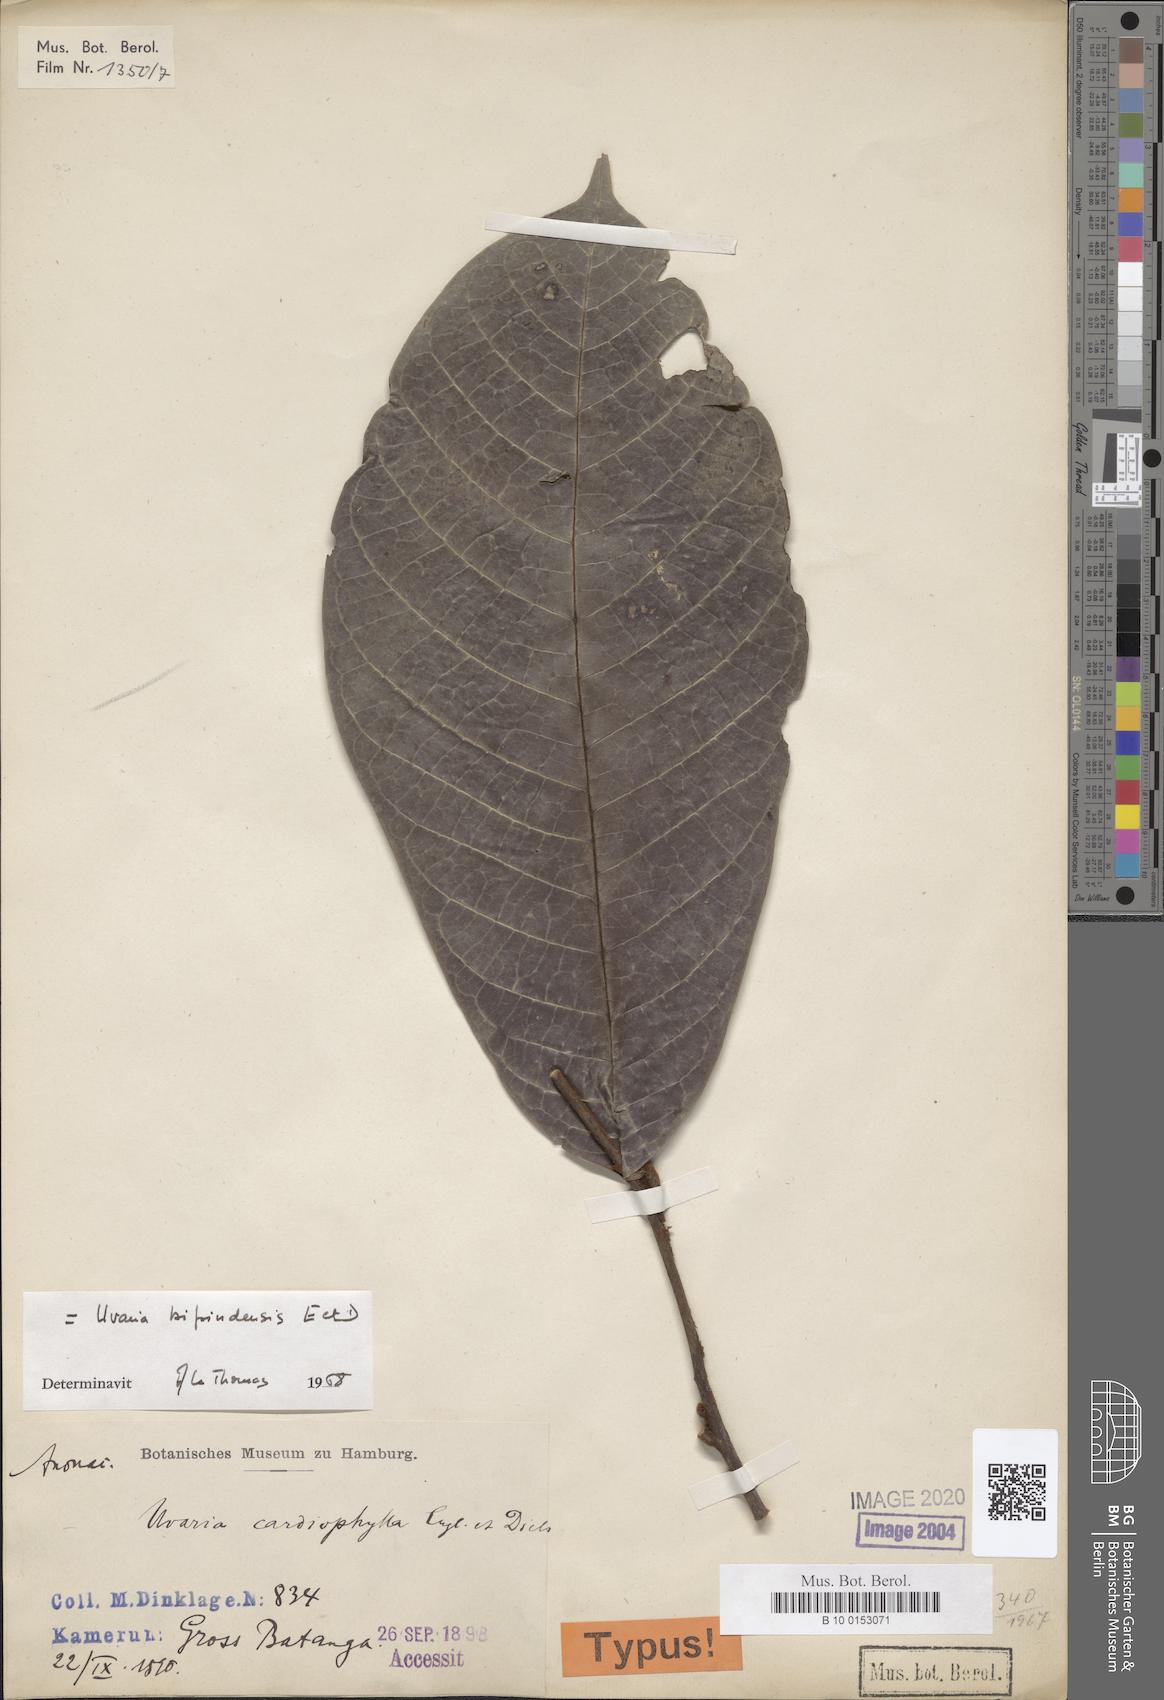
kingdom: Plantae
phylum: Tracheophyta
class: Magnoliopsida
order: Magnoliales
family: Annonaceae
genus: Uvaria
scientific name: Uvaria bipindensis
